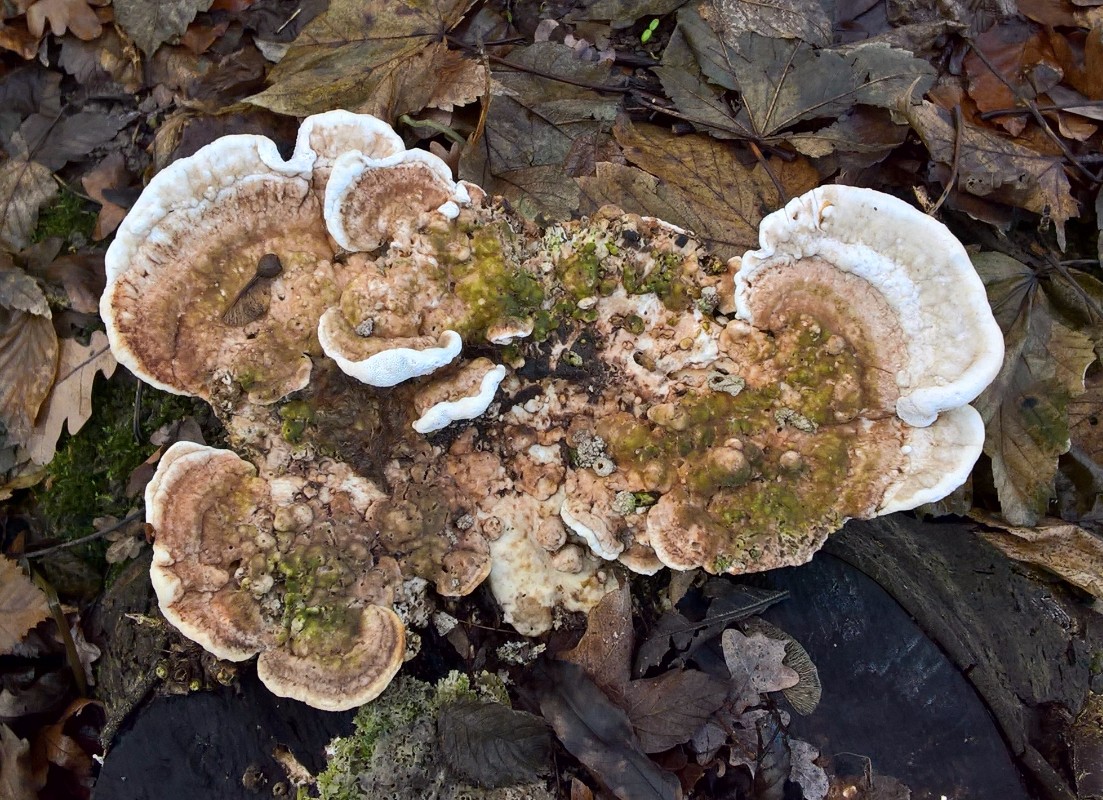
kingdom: Fungi
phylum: Basidiomycota
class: Agaricomycetes
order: Polyporales
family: Polyporaceae
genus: Trametes
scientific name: Trametes gibbosa
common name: puklet læderporesvamp
